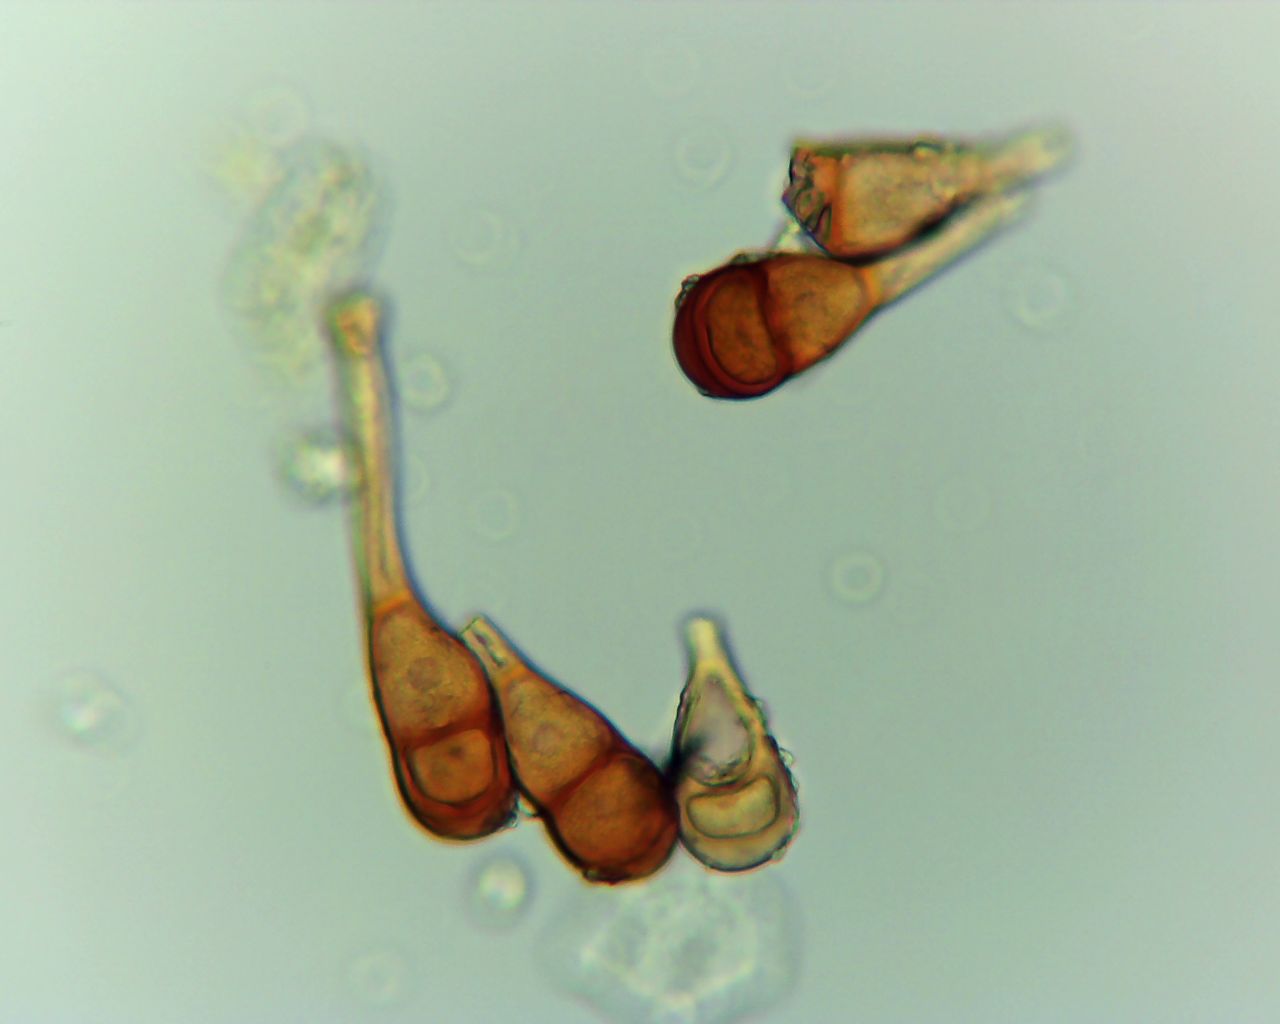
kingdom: Fungi
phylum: Basidiomycota
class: Pucciniomycetes
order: Pucciniales
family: Pucciniaceae
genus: Puccinia
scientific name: Puccinia magnusiana
